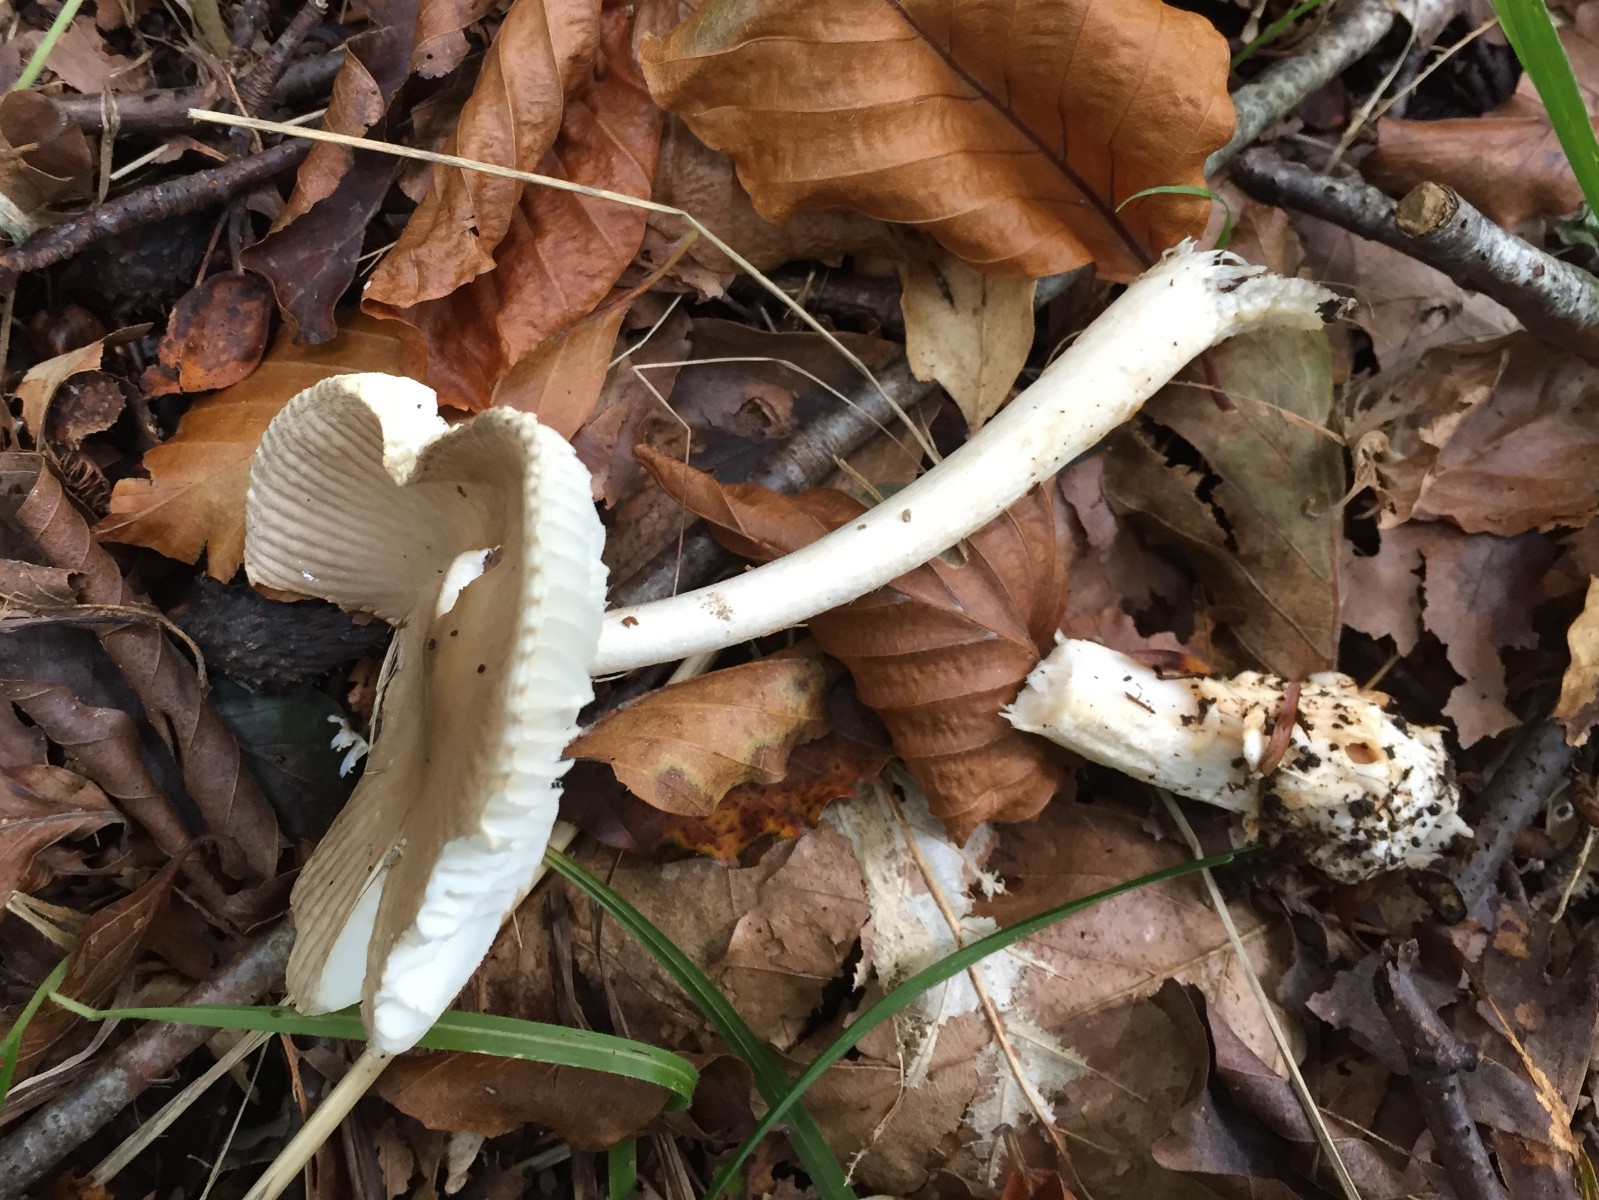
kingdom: Fungi
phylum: Basidiomycota
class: Agaricomycetes
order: Agaricales
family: Amanitaceae
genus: Amanita
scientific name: Amanita vaginata
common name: grå kam-fluesvamp
